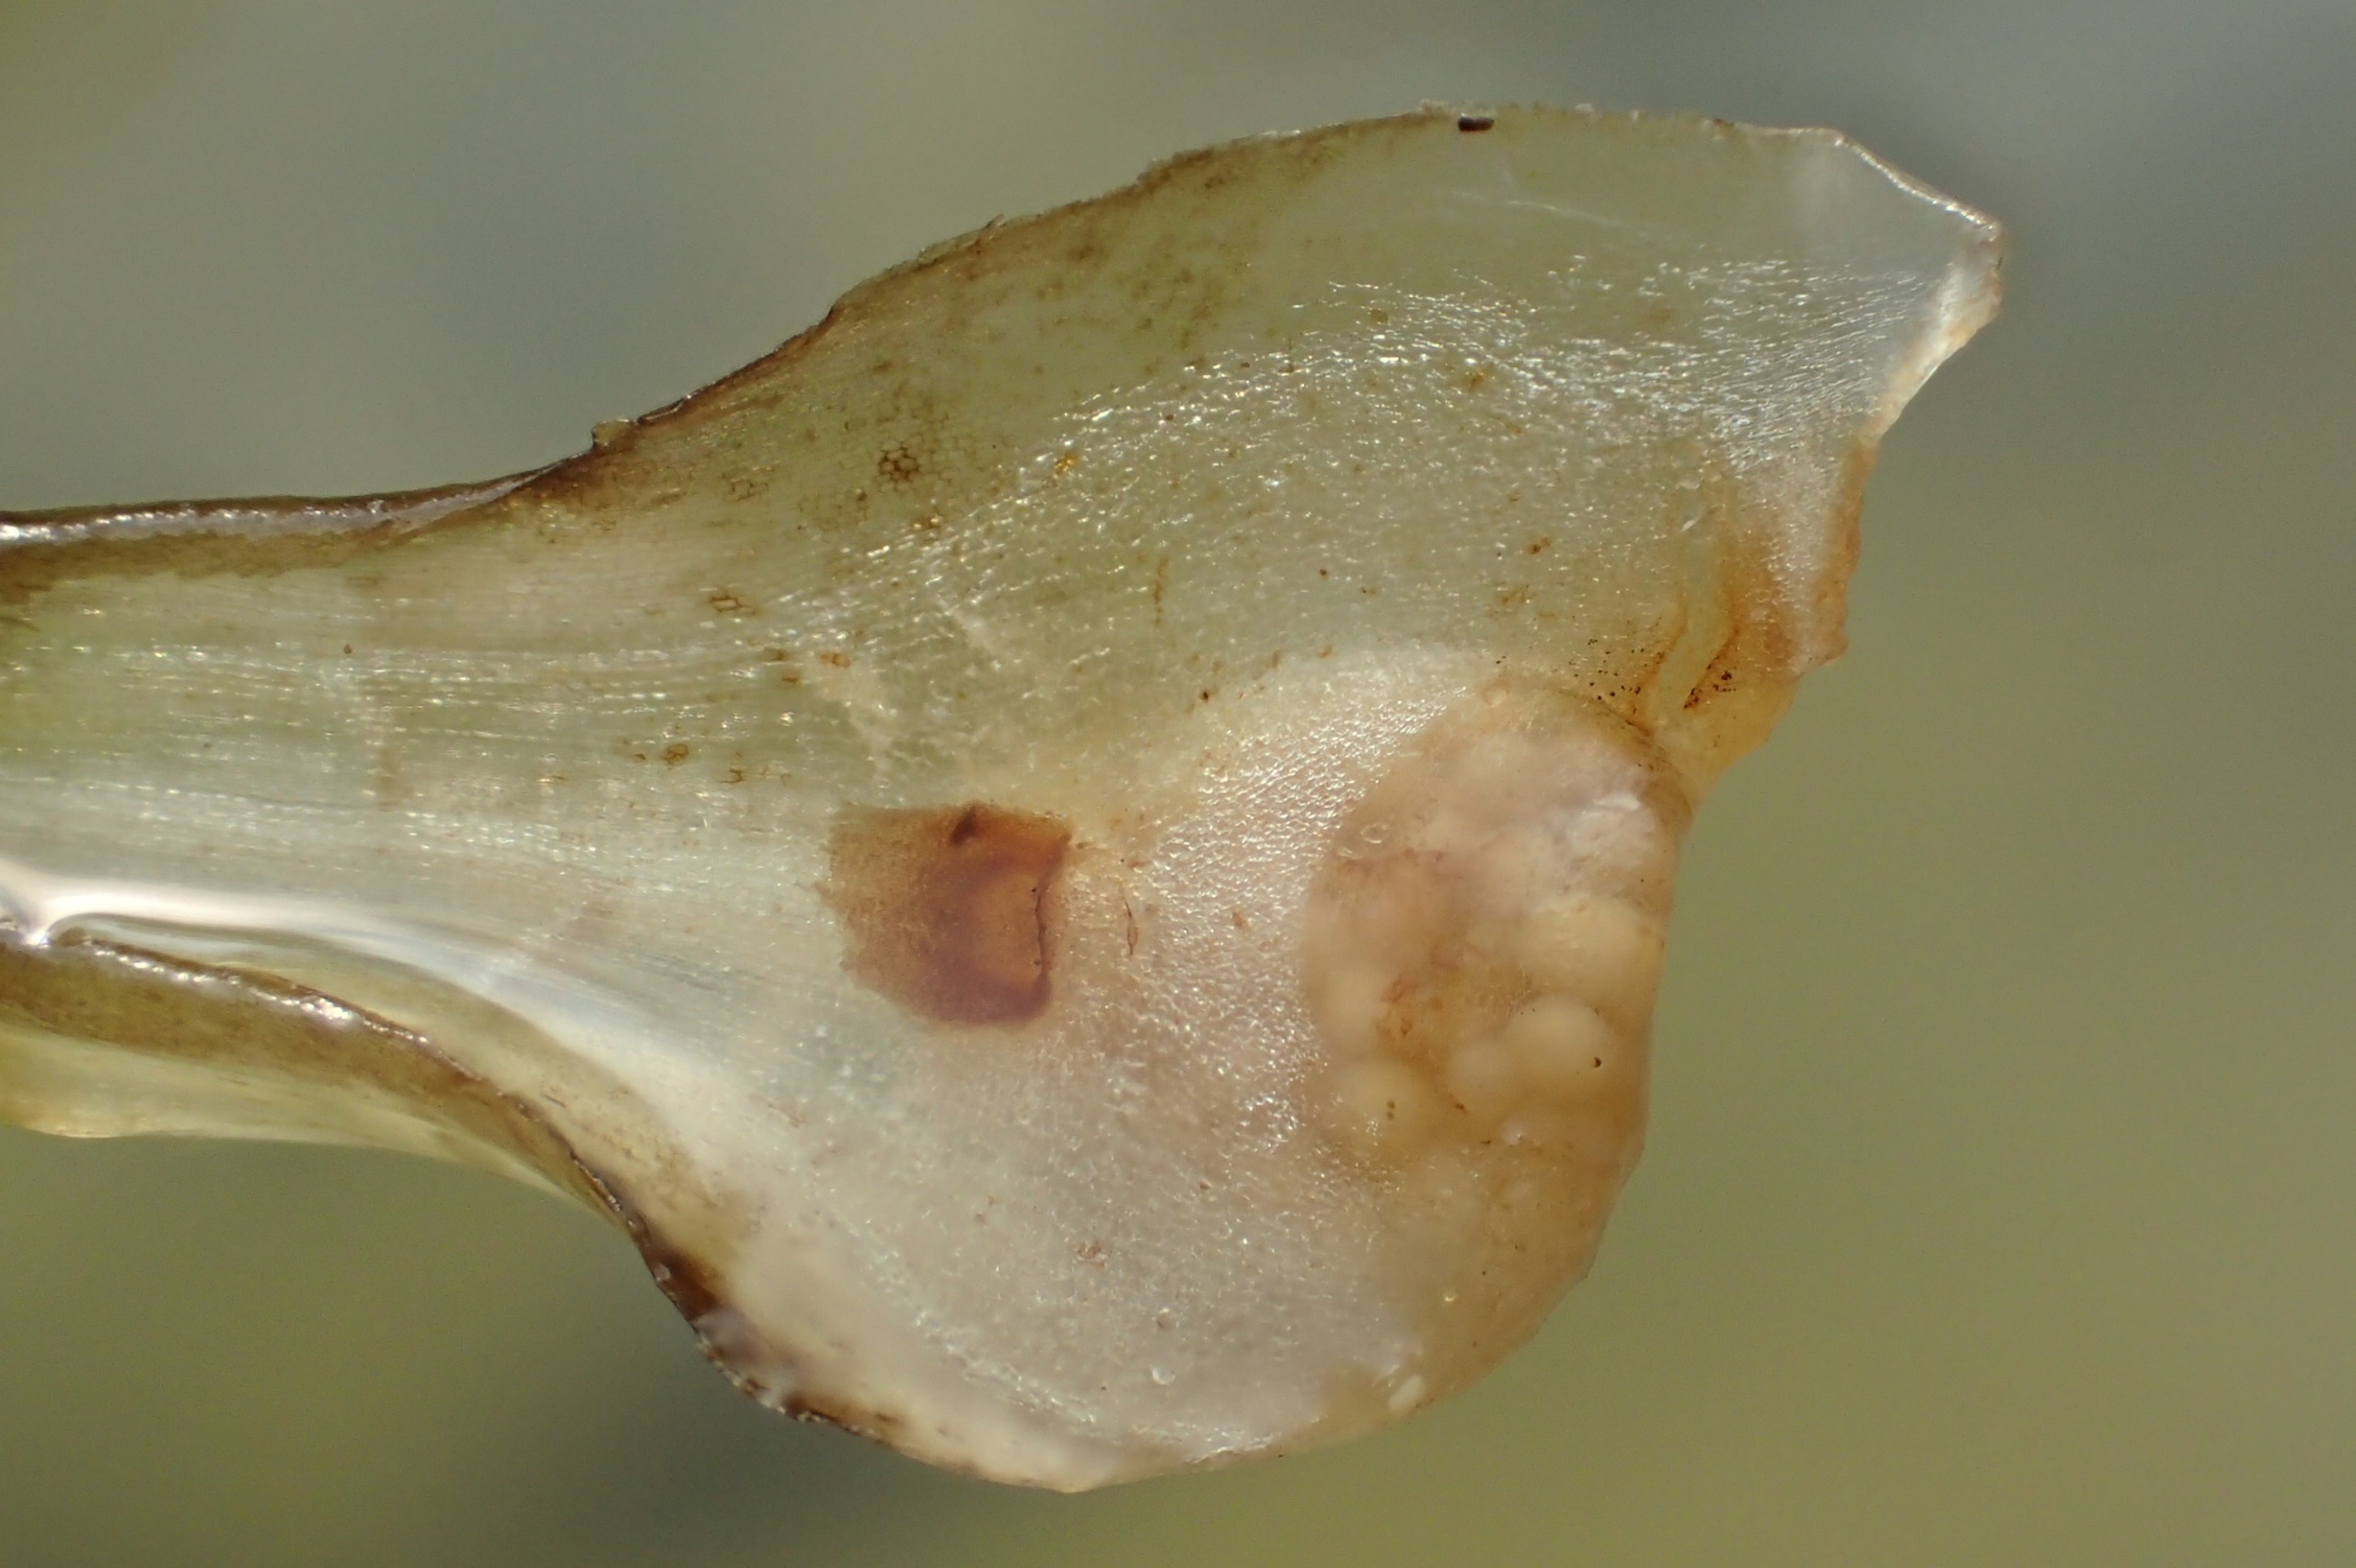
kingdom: Plantae
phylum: Tracheophyta
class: Lycopodiopsida
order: Isoetales
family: Isoetaceae
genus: Isoetes
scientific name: Isoetes lacustris
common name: Sortgrøn brasenføde
